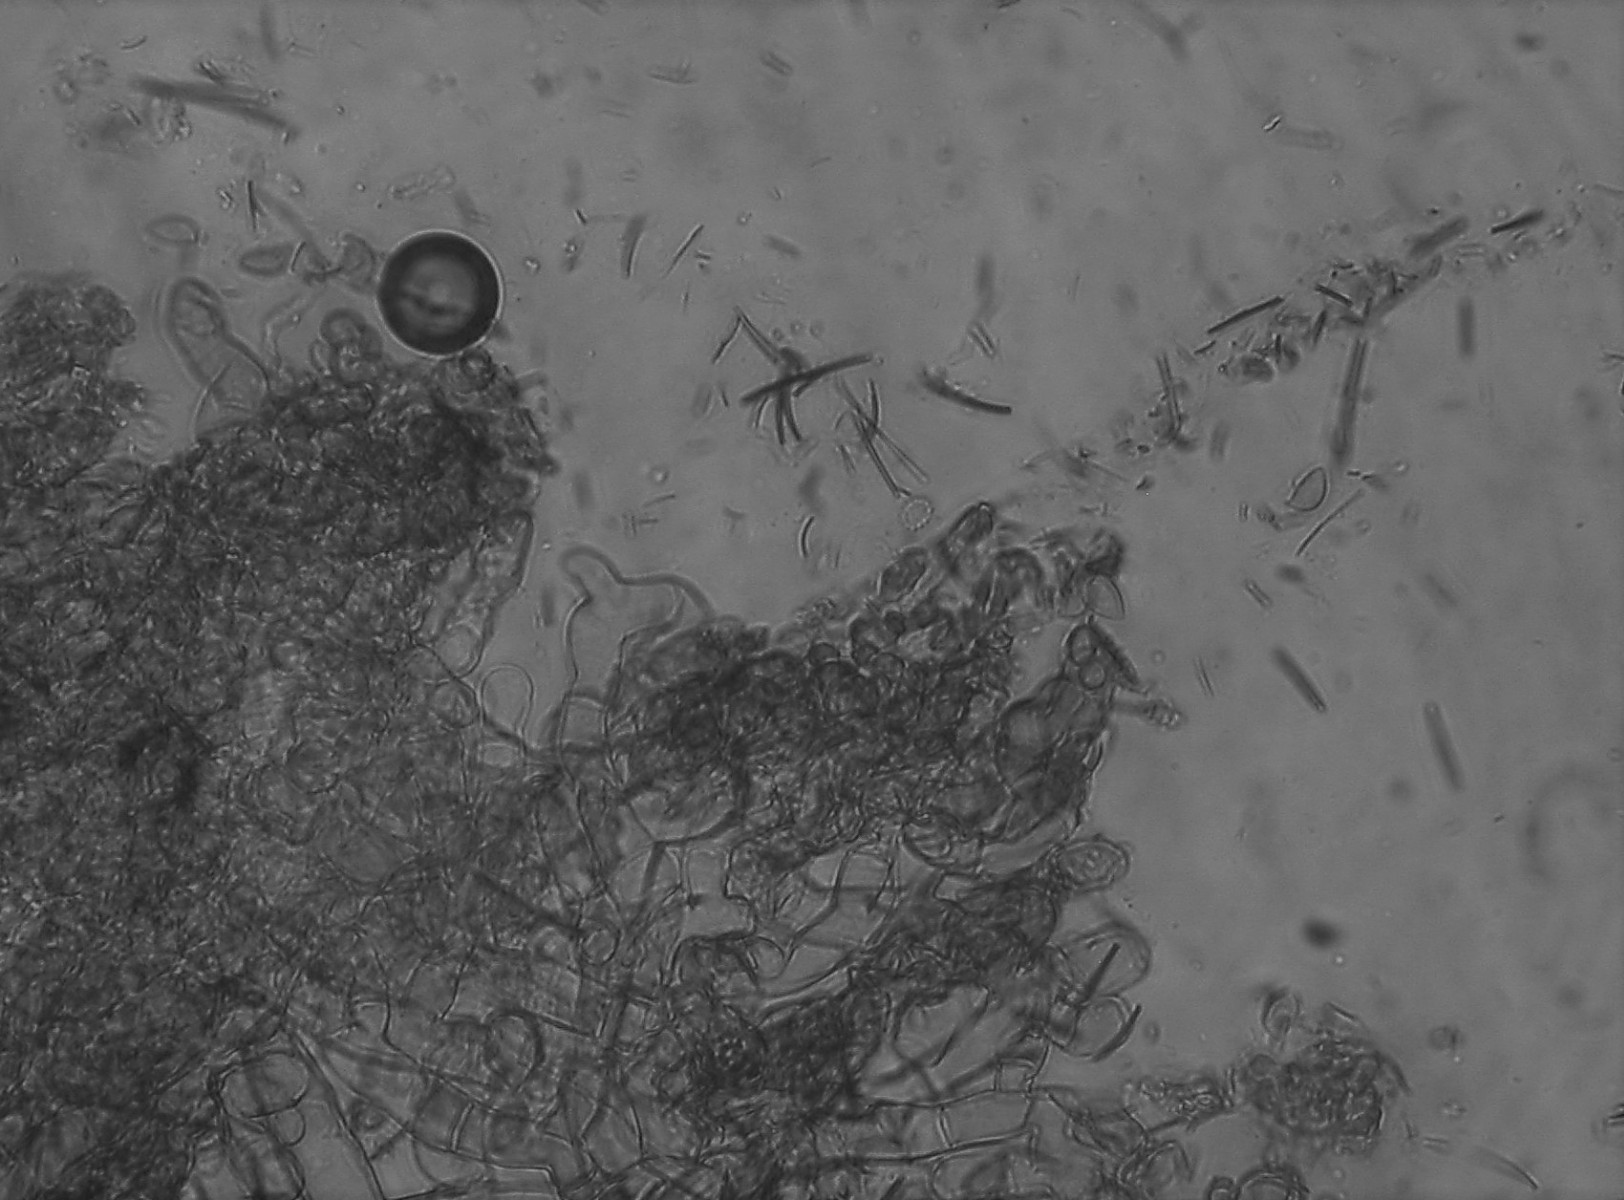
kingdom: Fungi
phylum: Basidiomycota
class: Agaricomycetes
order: Cantharellales
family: Botryobasidiaceae
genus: Botryobasidium
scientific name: Botryobasidium subcoronatum
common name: almindelig spindhinde
